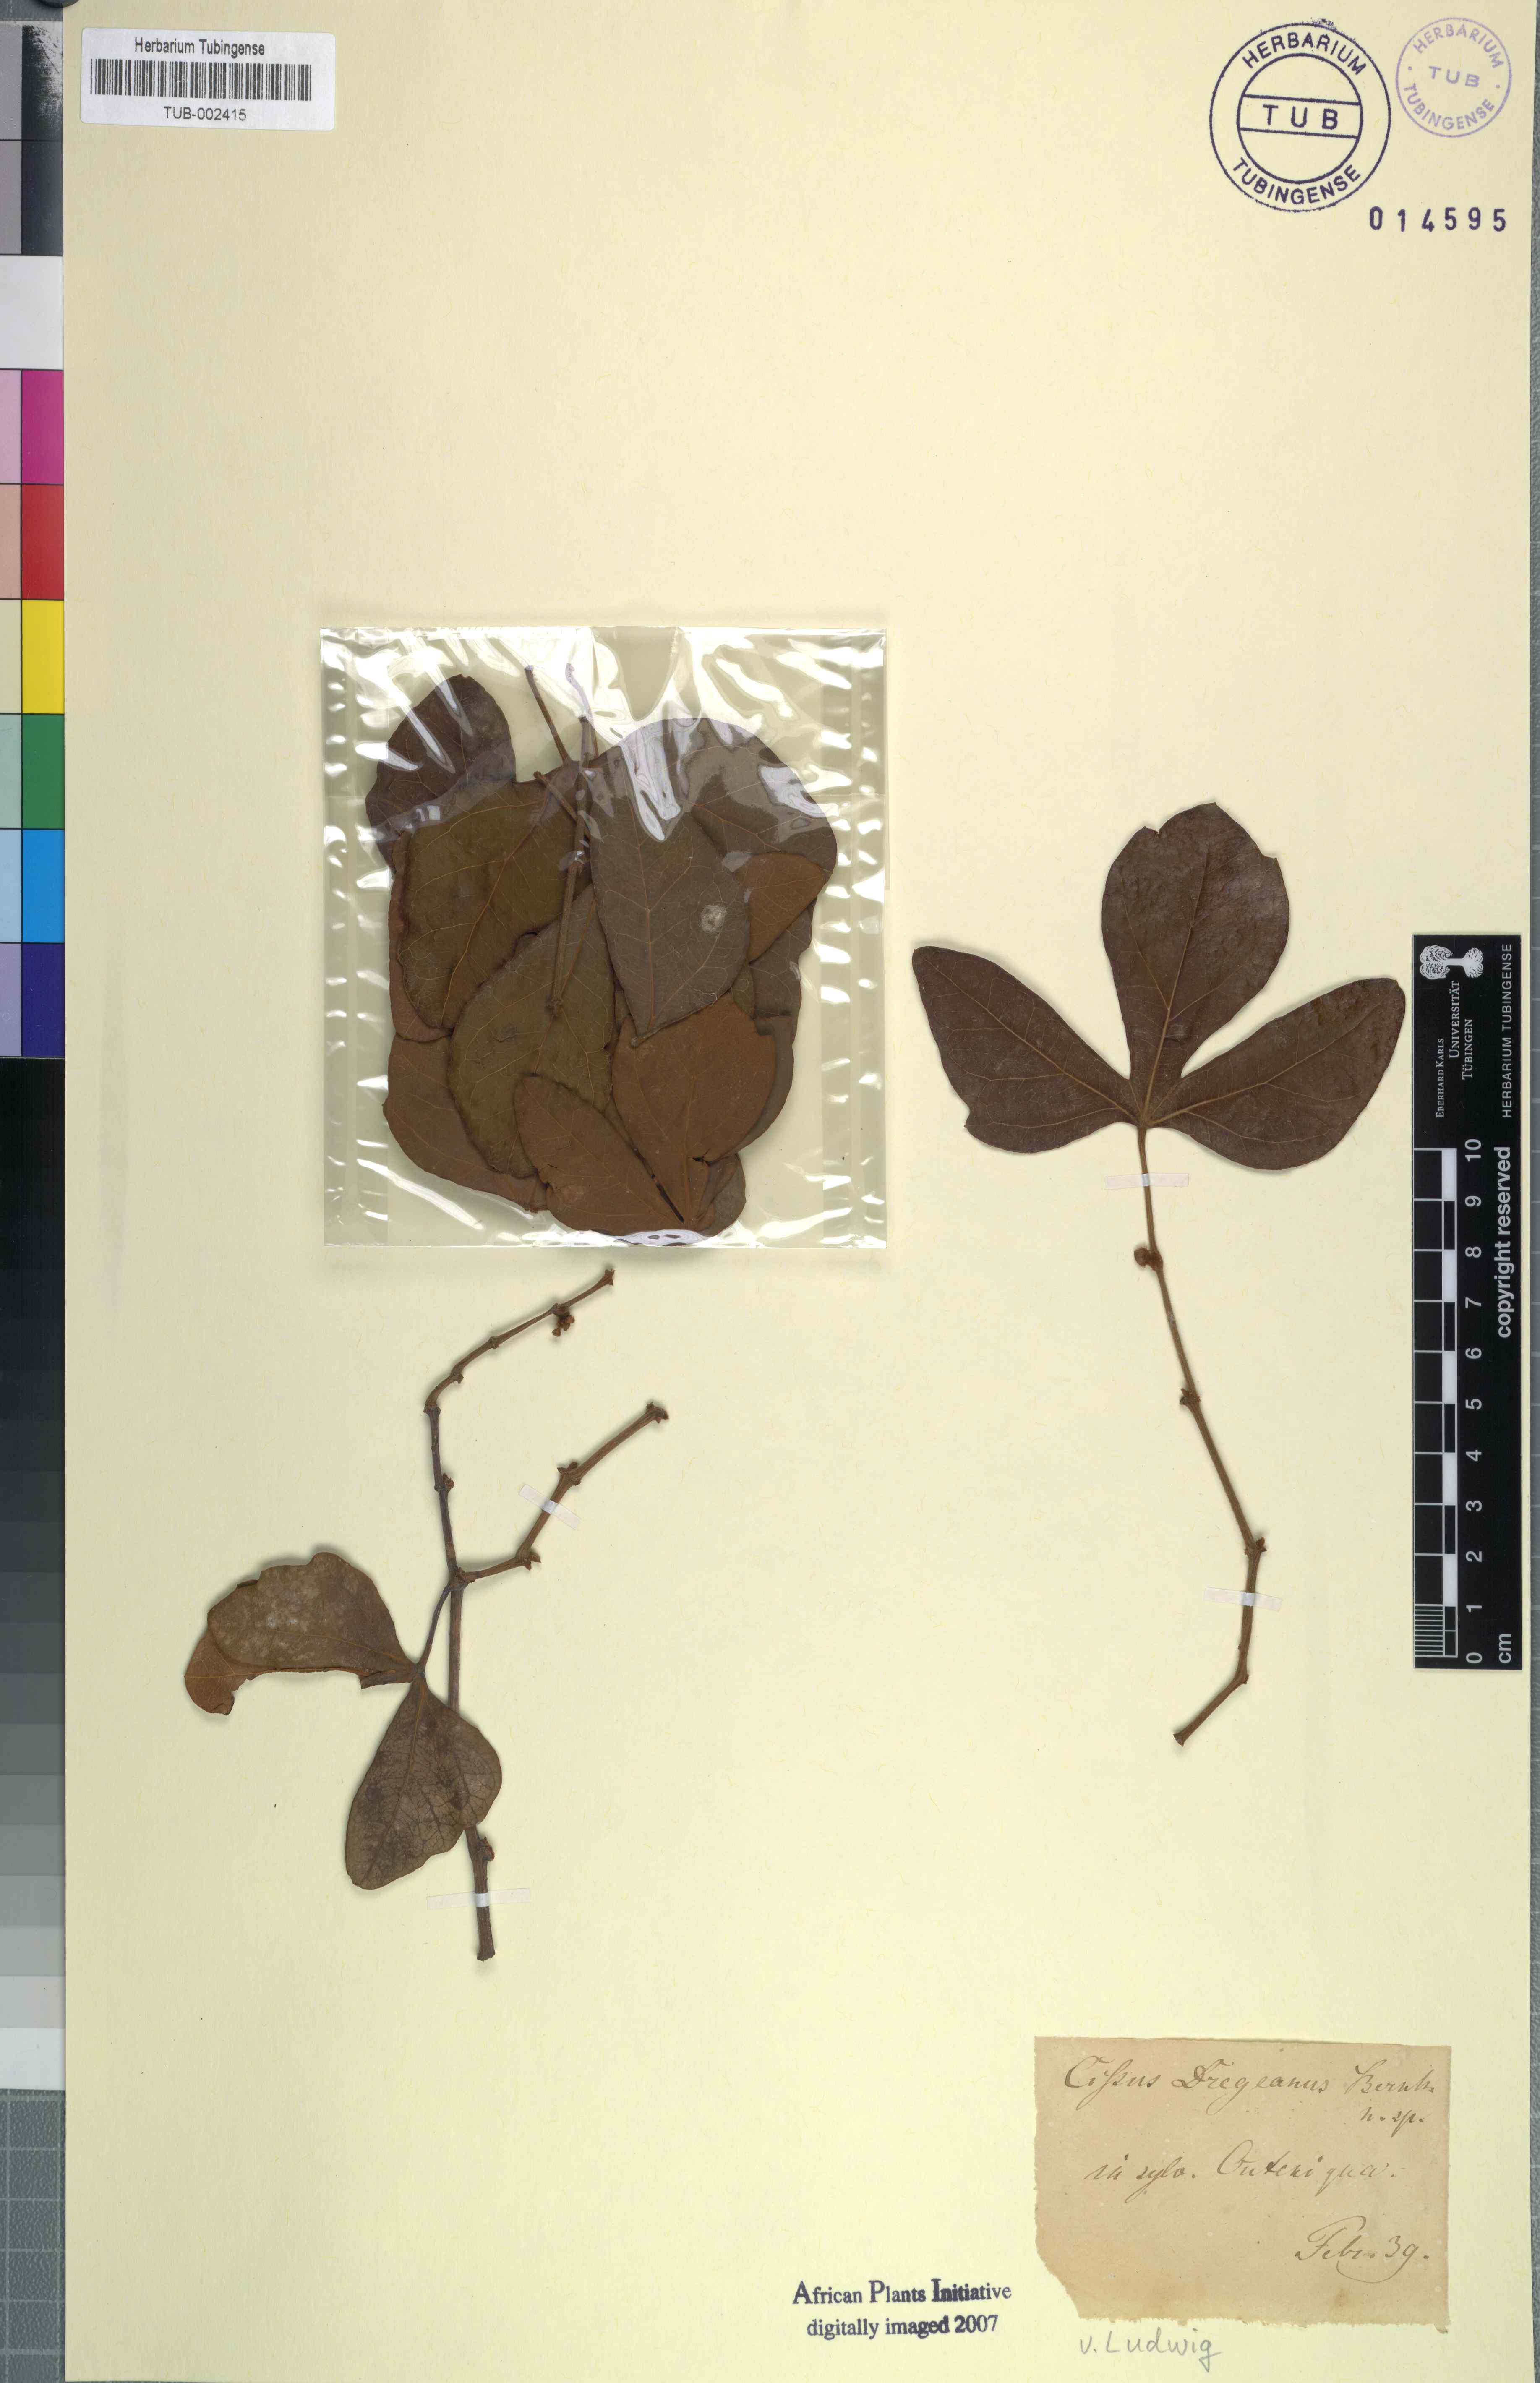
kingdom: Plantae
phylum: Tracheophyta
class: Magnoliopsida
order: Vitales
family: Vitaceae
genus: Vitis
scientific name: Vitis capensis
